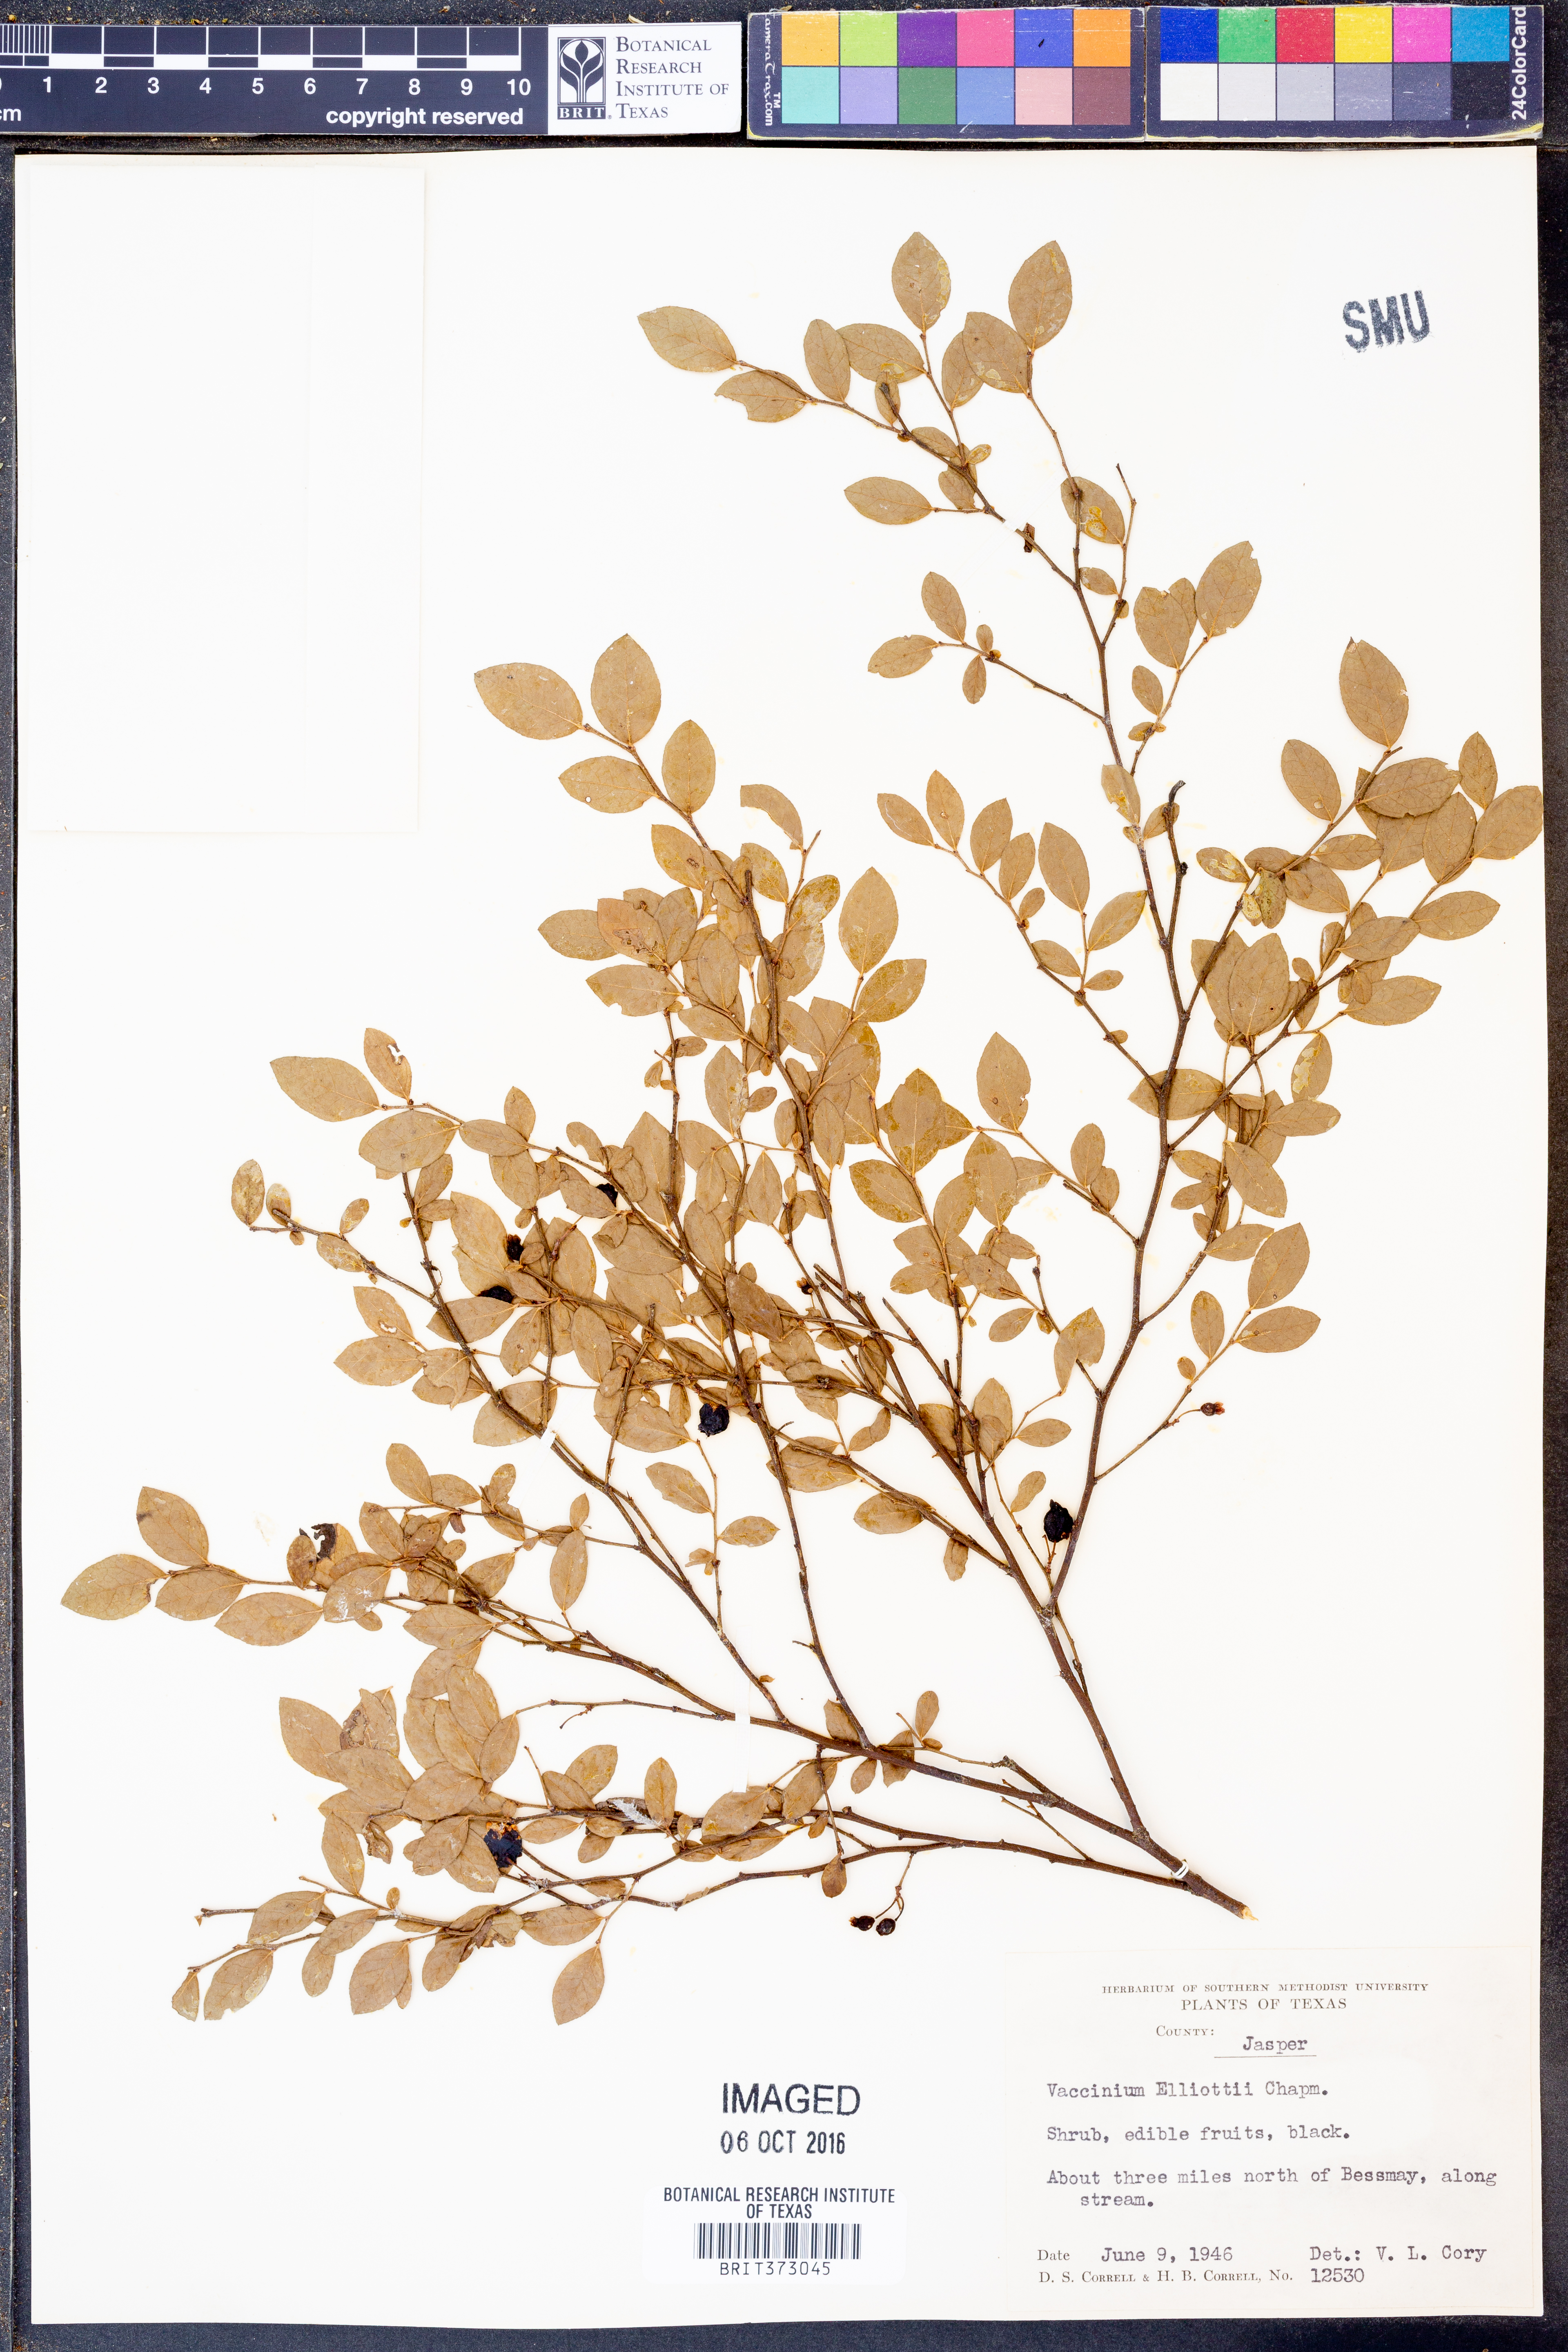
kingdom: Plantae
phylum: Tracheophyta
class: Magnoliopsida
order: Ericales
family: Ericaceae
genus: Vaccinium
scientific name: Vaccinium corymbosum
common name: Blueberry
